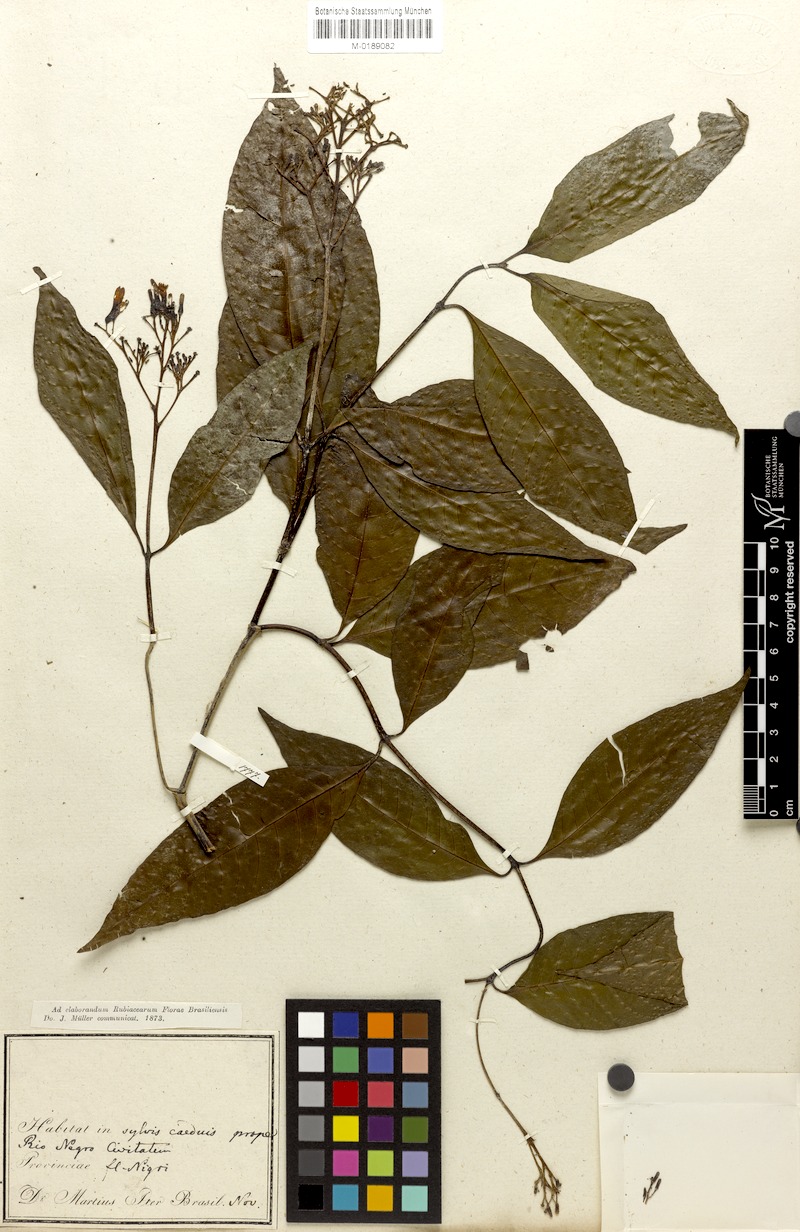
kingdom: Plantae
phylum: Tracheophyta
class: Magnoliopsida
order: Gentianales
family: Rubiaceae
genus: Psychotria
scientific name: Psychotria subscandens
